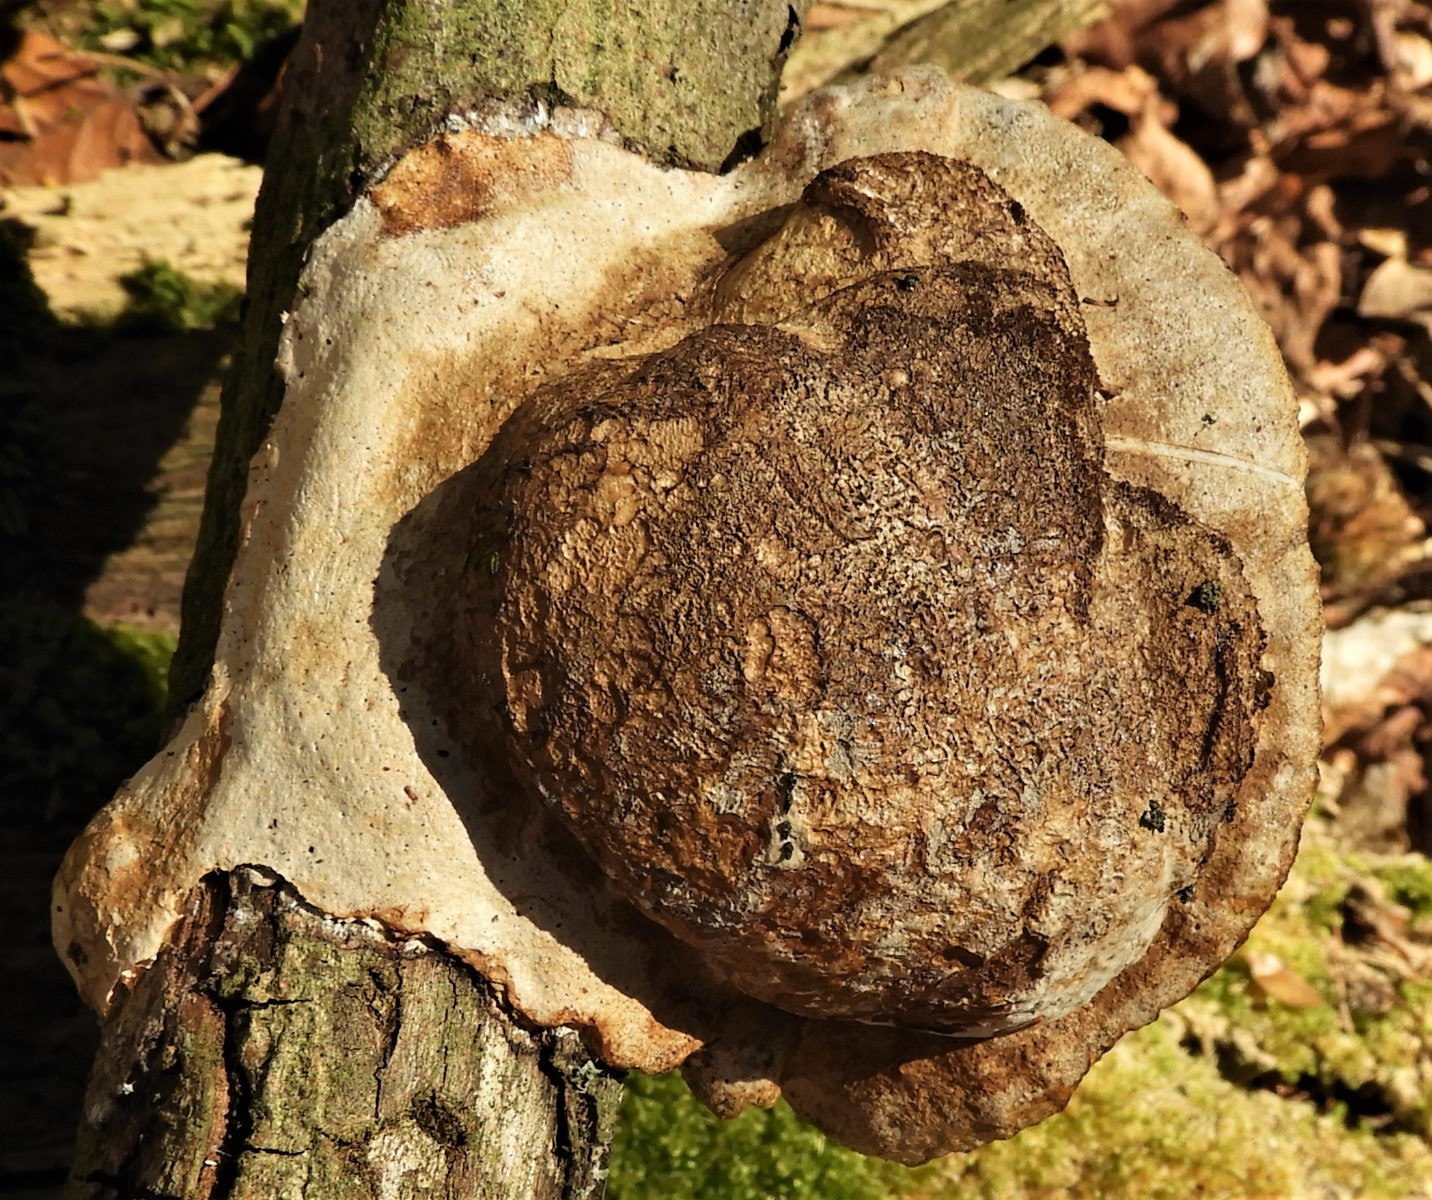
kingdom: Fungi
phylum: Basidiomycota
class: Agaricomycetes
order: Polyporales
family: Polyporaceae
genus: Daedaleopsis
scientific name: Daedaleopsis confragosa
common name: rødmende læderporesvamp
